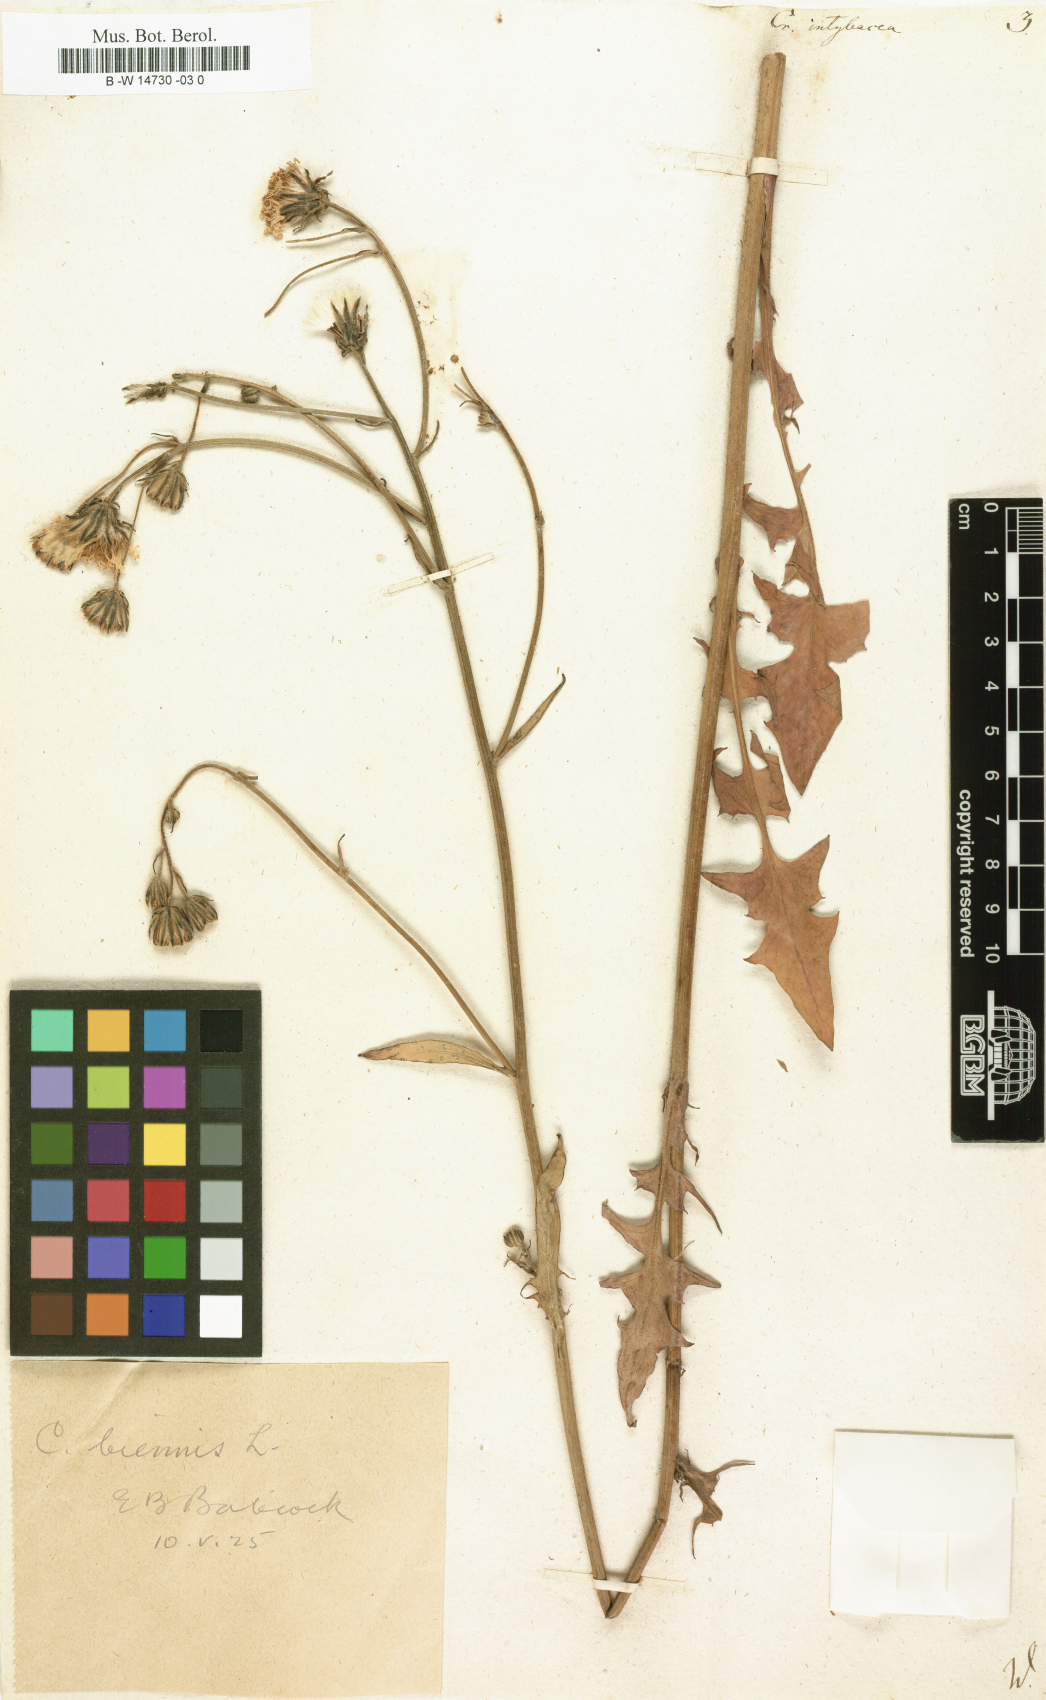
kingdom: Plantae
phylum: Tracheophyta
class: Magnoliopsida
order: Asterales
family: Asteraceae
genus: Crepis
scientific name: Crepis vesicaria
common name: Beaked hawksbeard
